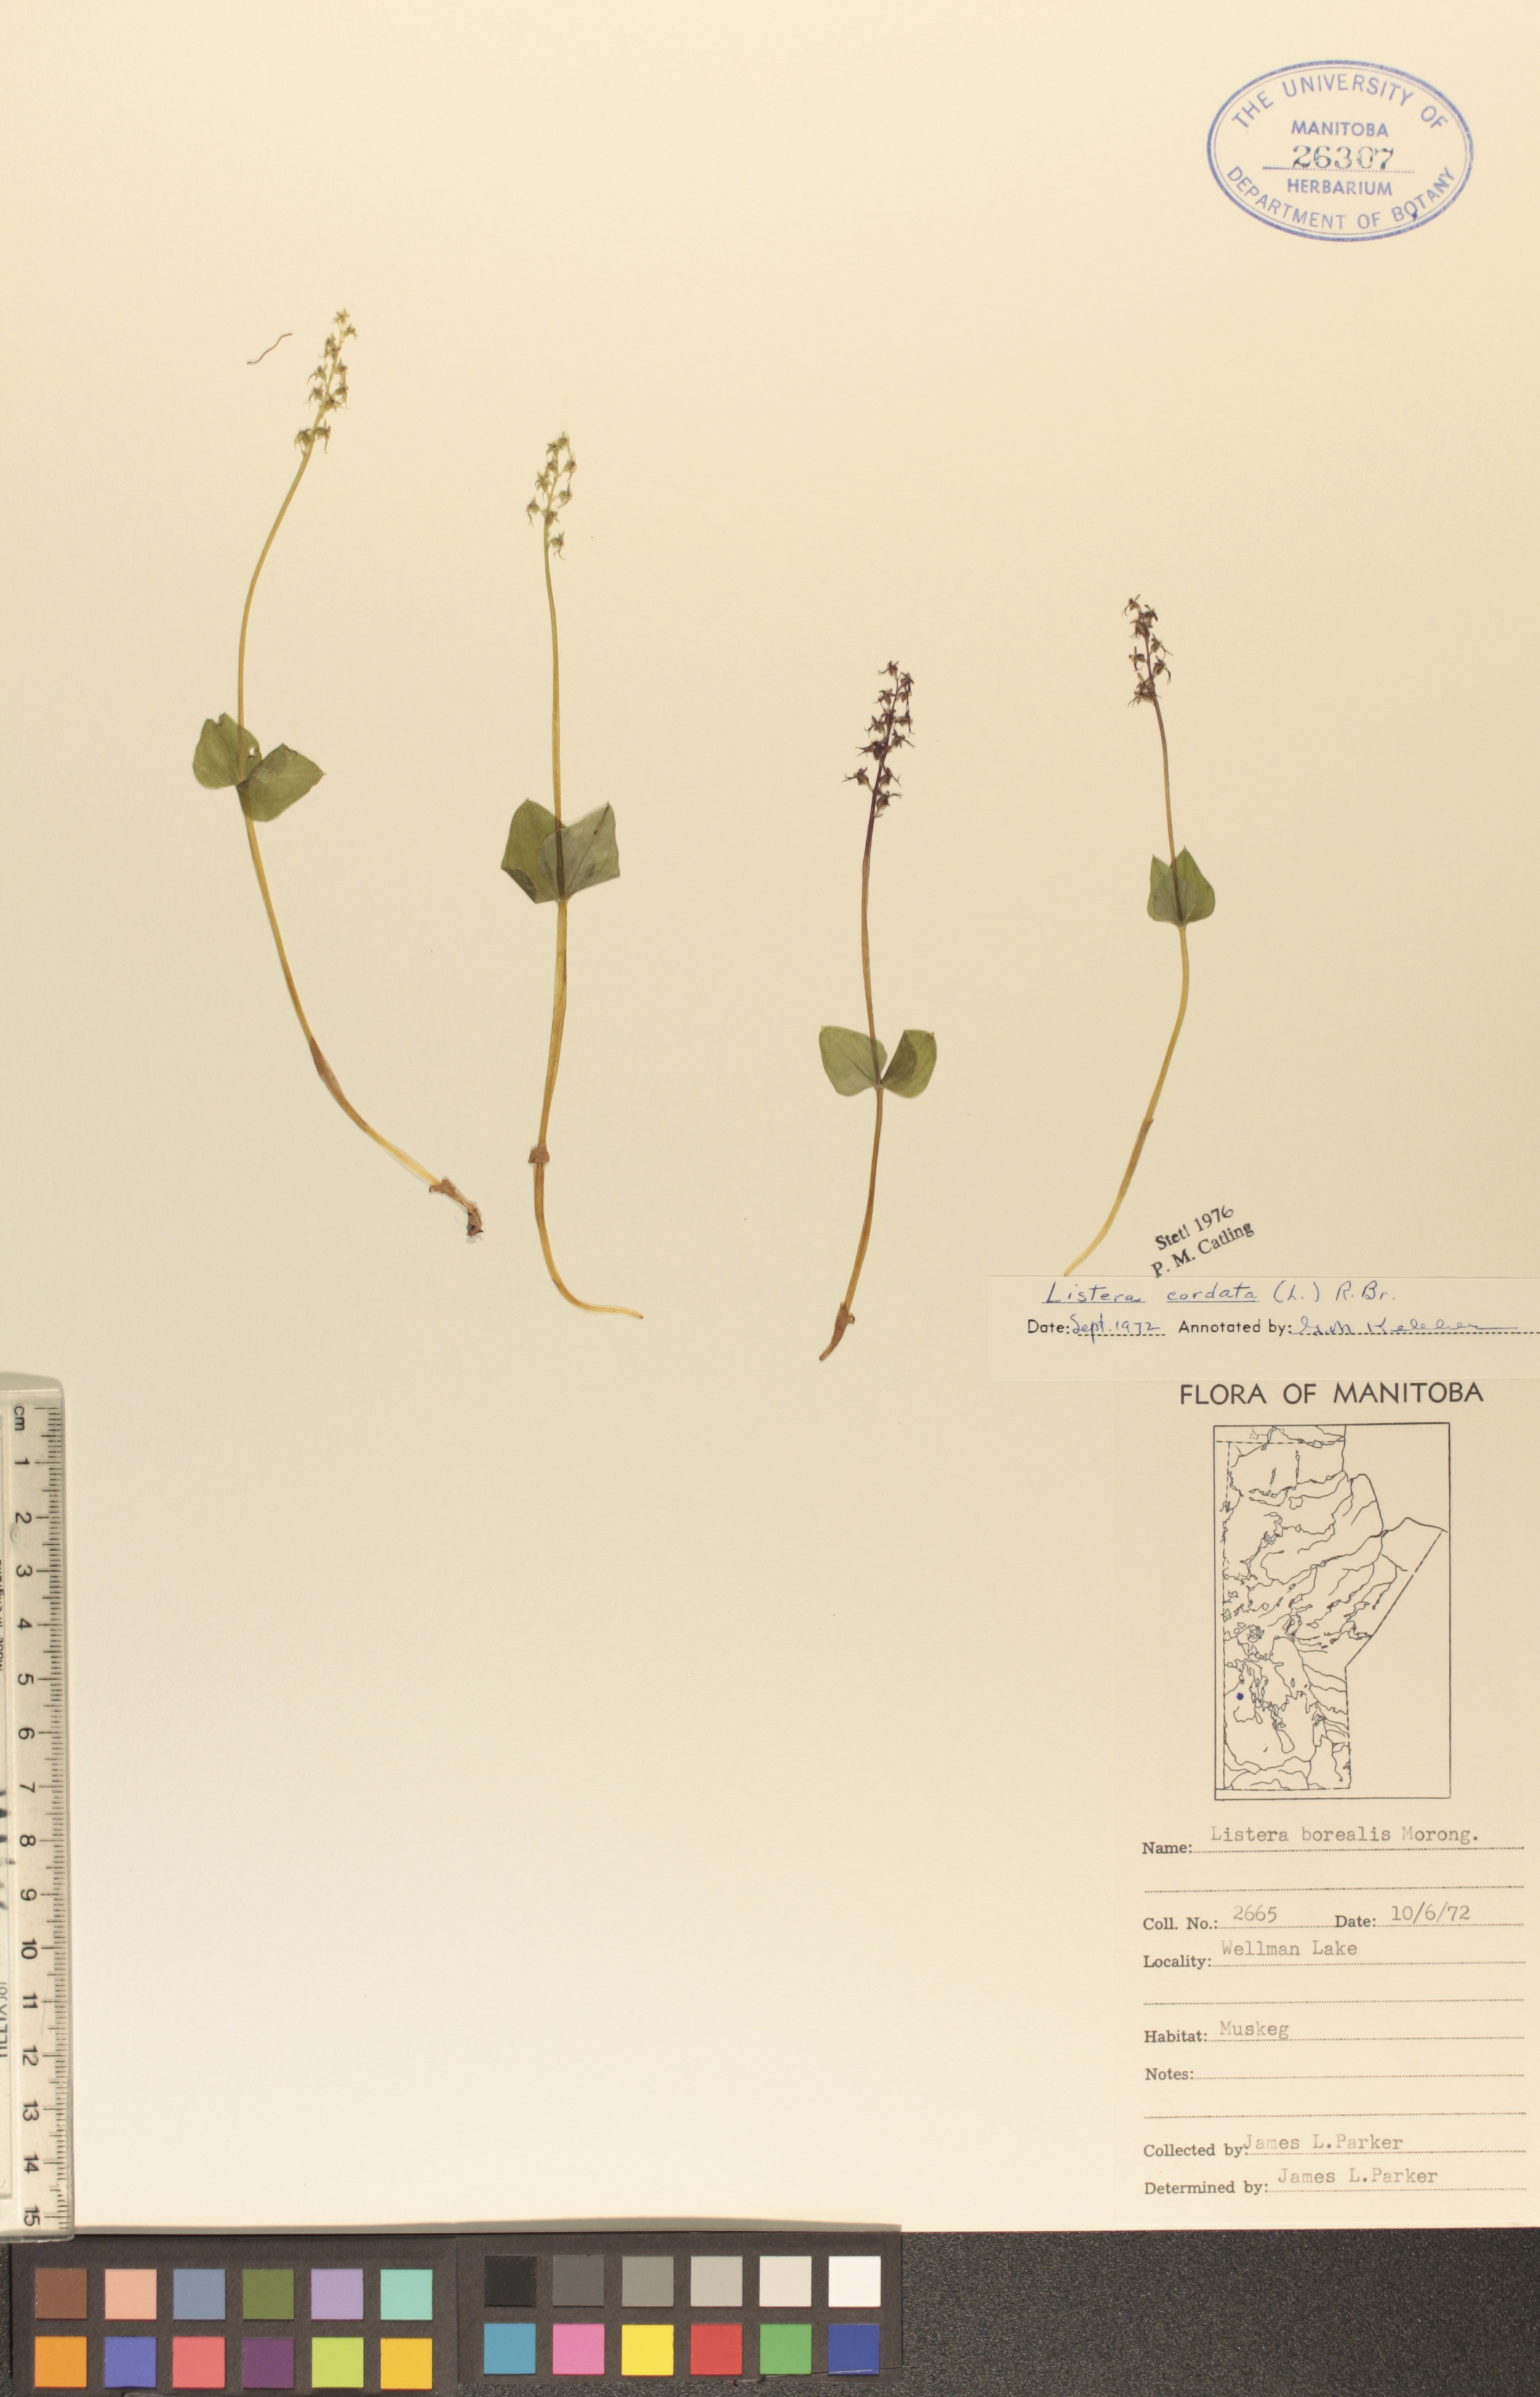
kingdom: Plantae
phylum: Tracheophyta
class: Liliopsida
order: Asparagales
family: Orchidaceae
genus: Neottia
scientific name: Neottia borealis
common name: Northern twayblade
